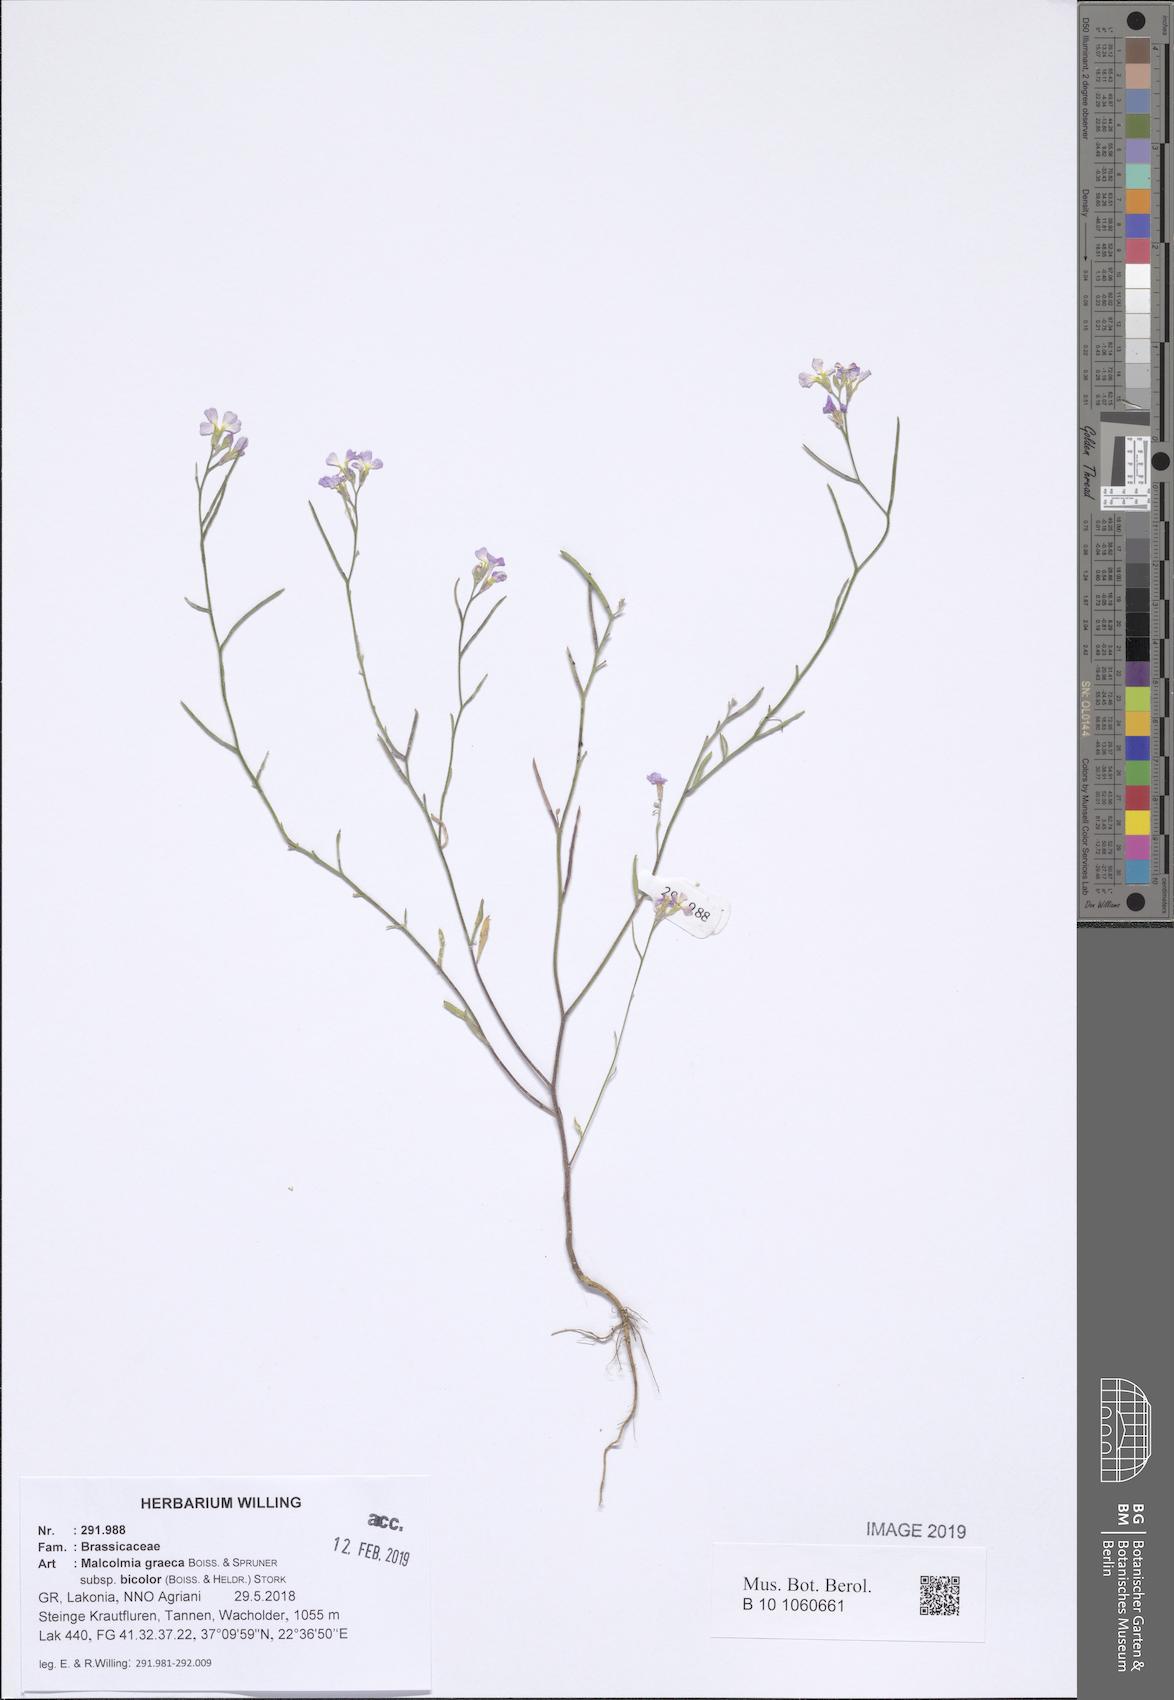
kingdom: Plantae
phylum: Tracheophyta
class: Magnoliopsida
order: Brassicales
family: Brassicaceae
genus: Malcolmia
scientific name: Malcolmia graeca
